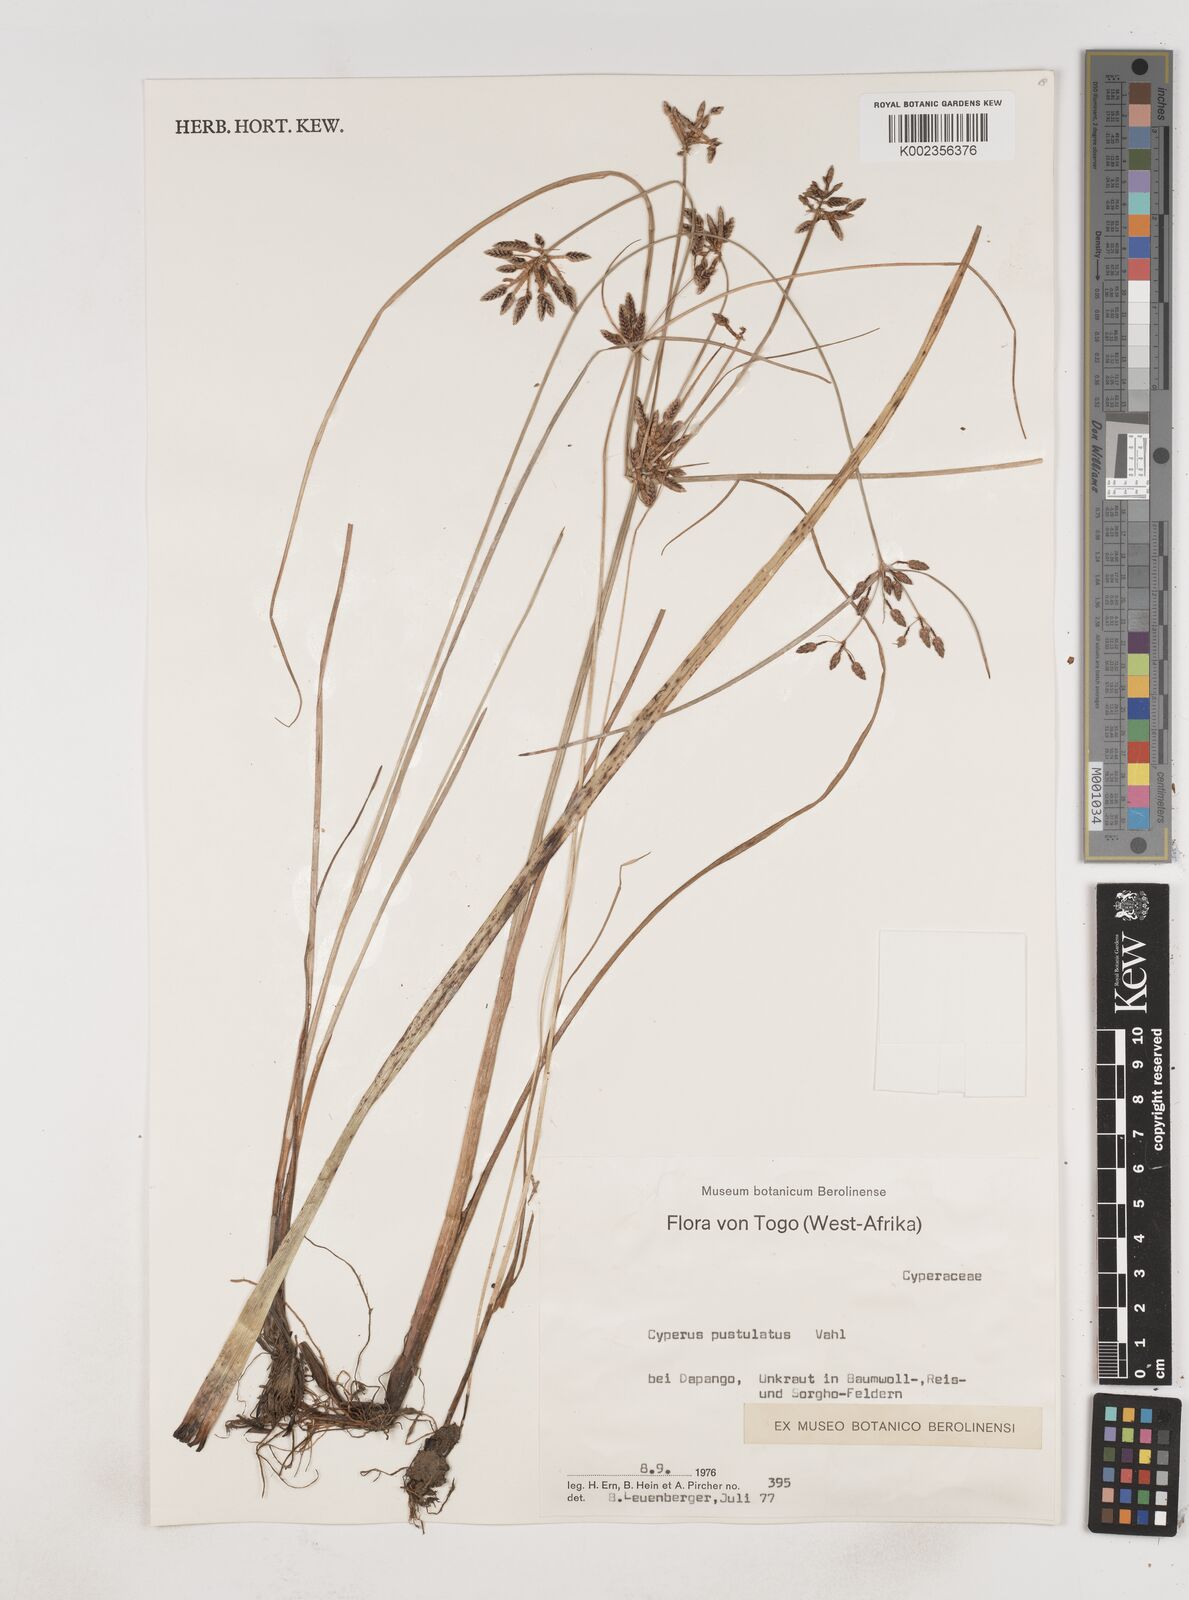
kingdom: Plantae
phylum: Tracheophyta
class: Liliopsida
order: Poales
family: Cyperaceae
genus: Cyperus
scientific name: Cyperus pustulatus
